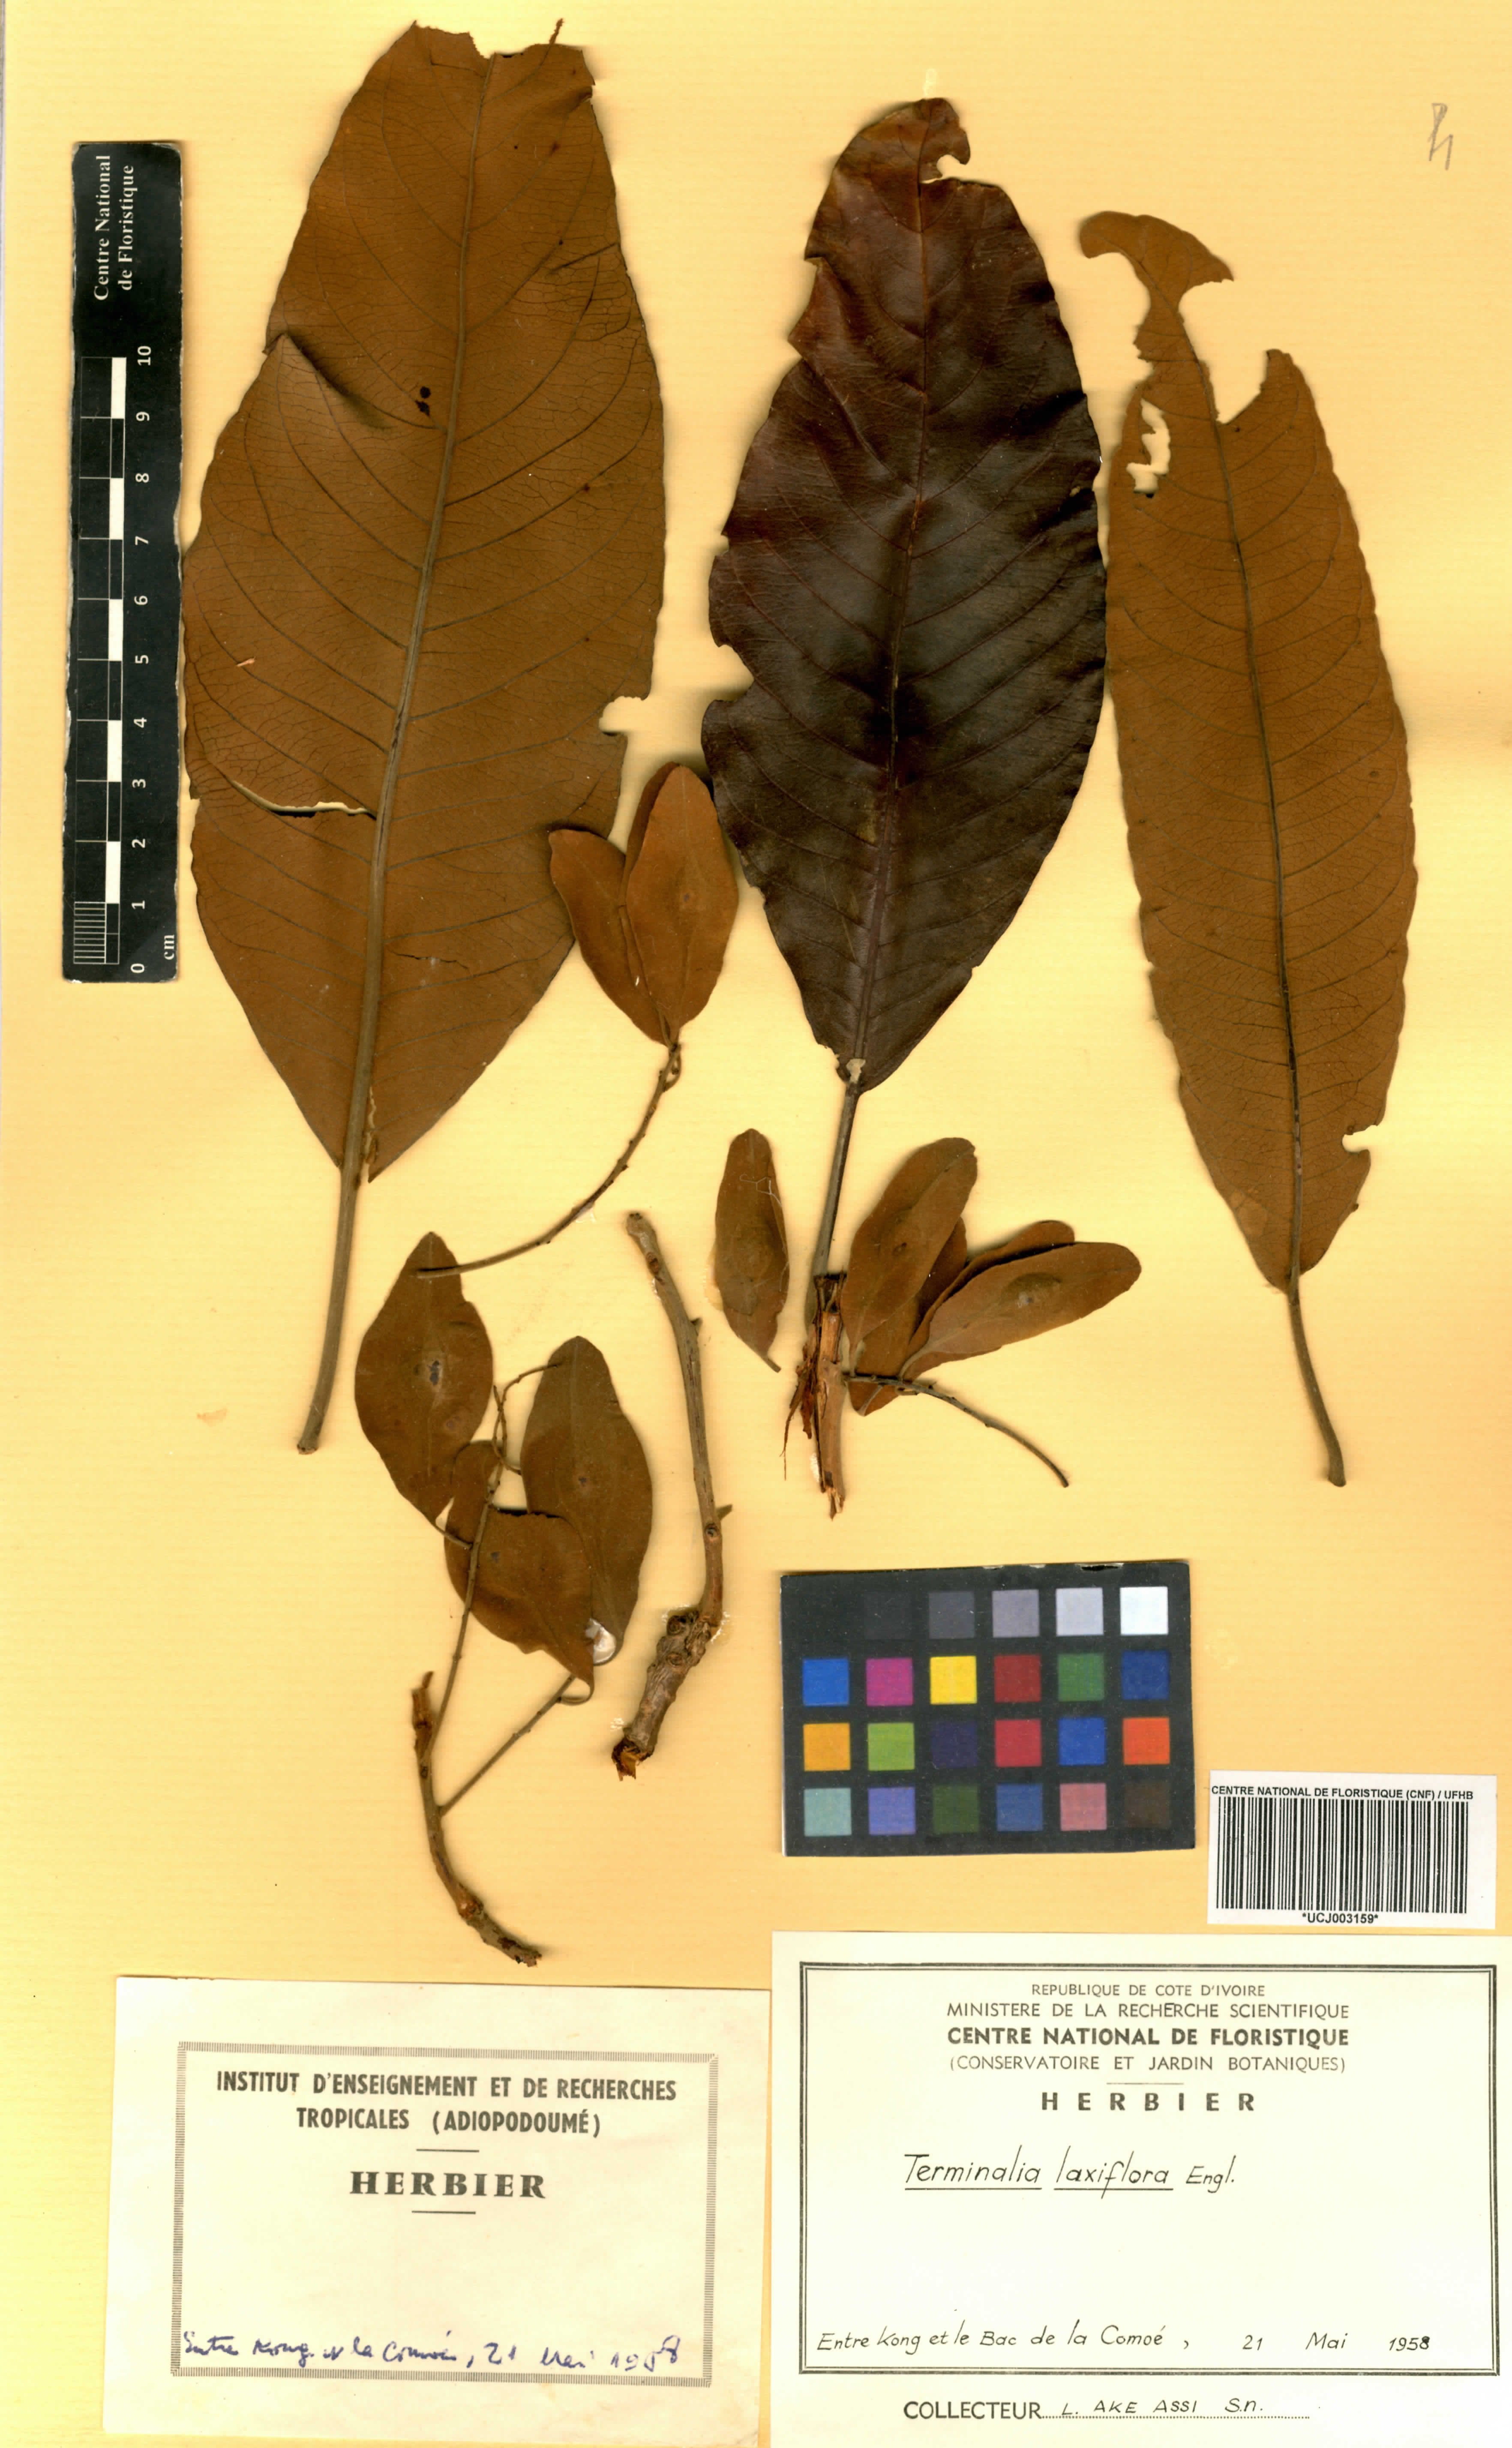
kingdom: Plantae
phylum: Tracheophyta
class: Magnoliopsida
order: Myrtales
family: Combretaceae
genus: Terminalia
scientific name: Terminalia laxiflora
